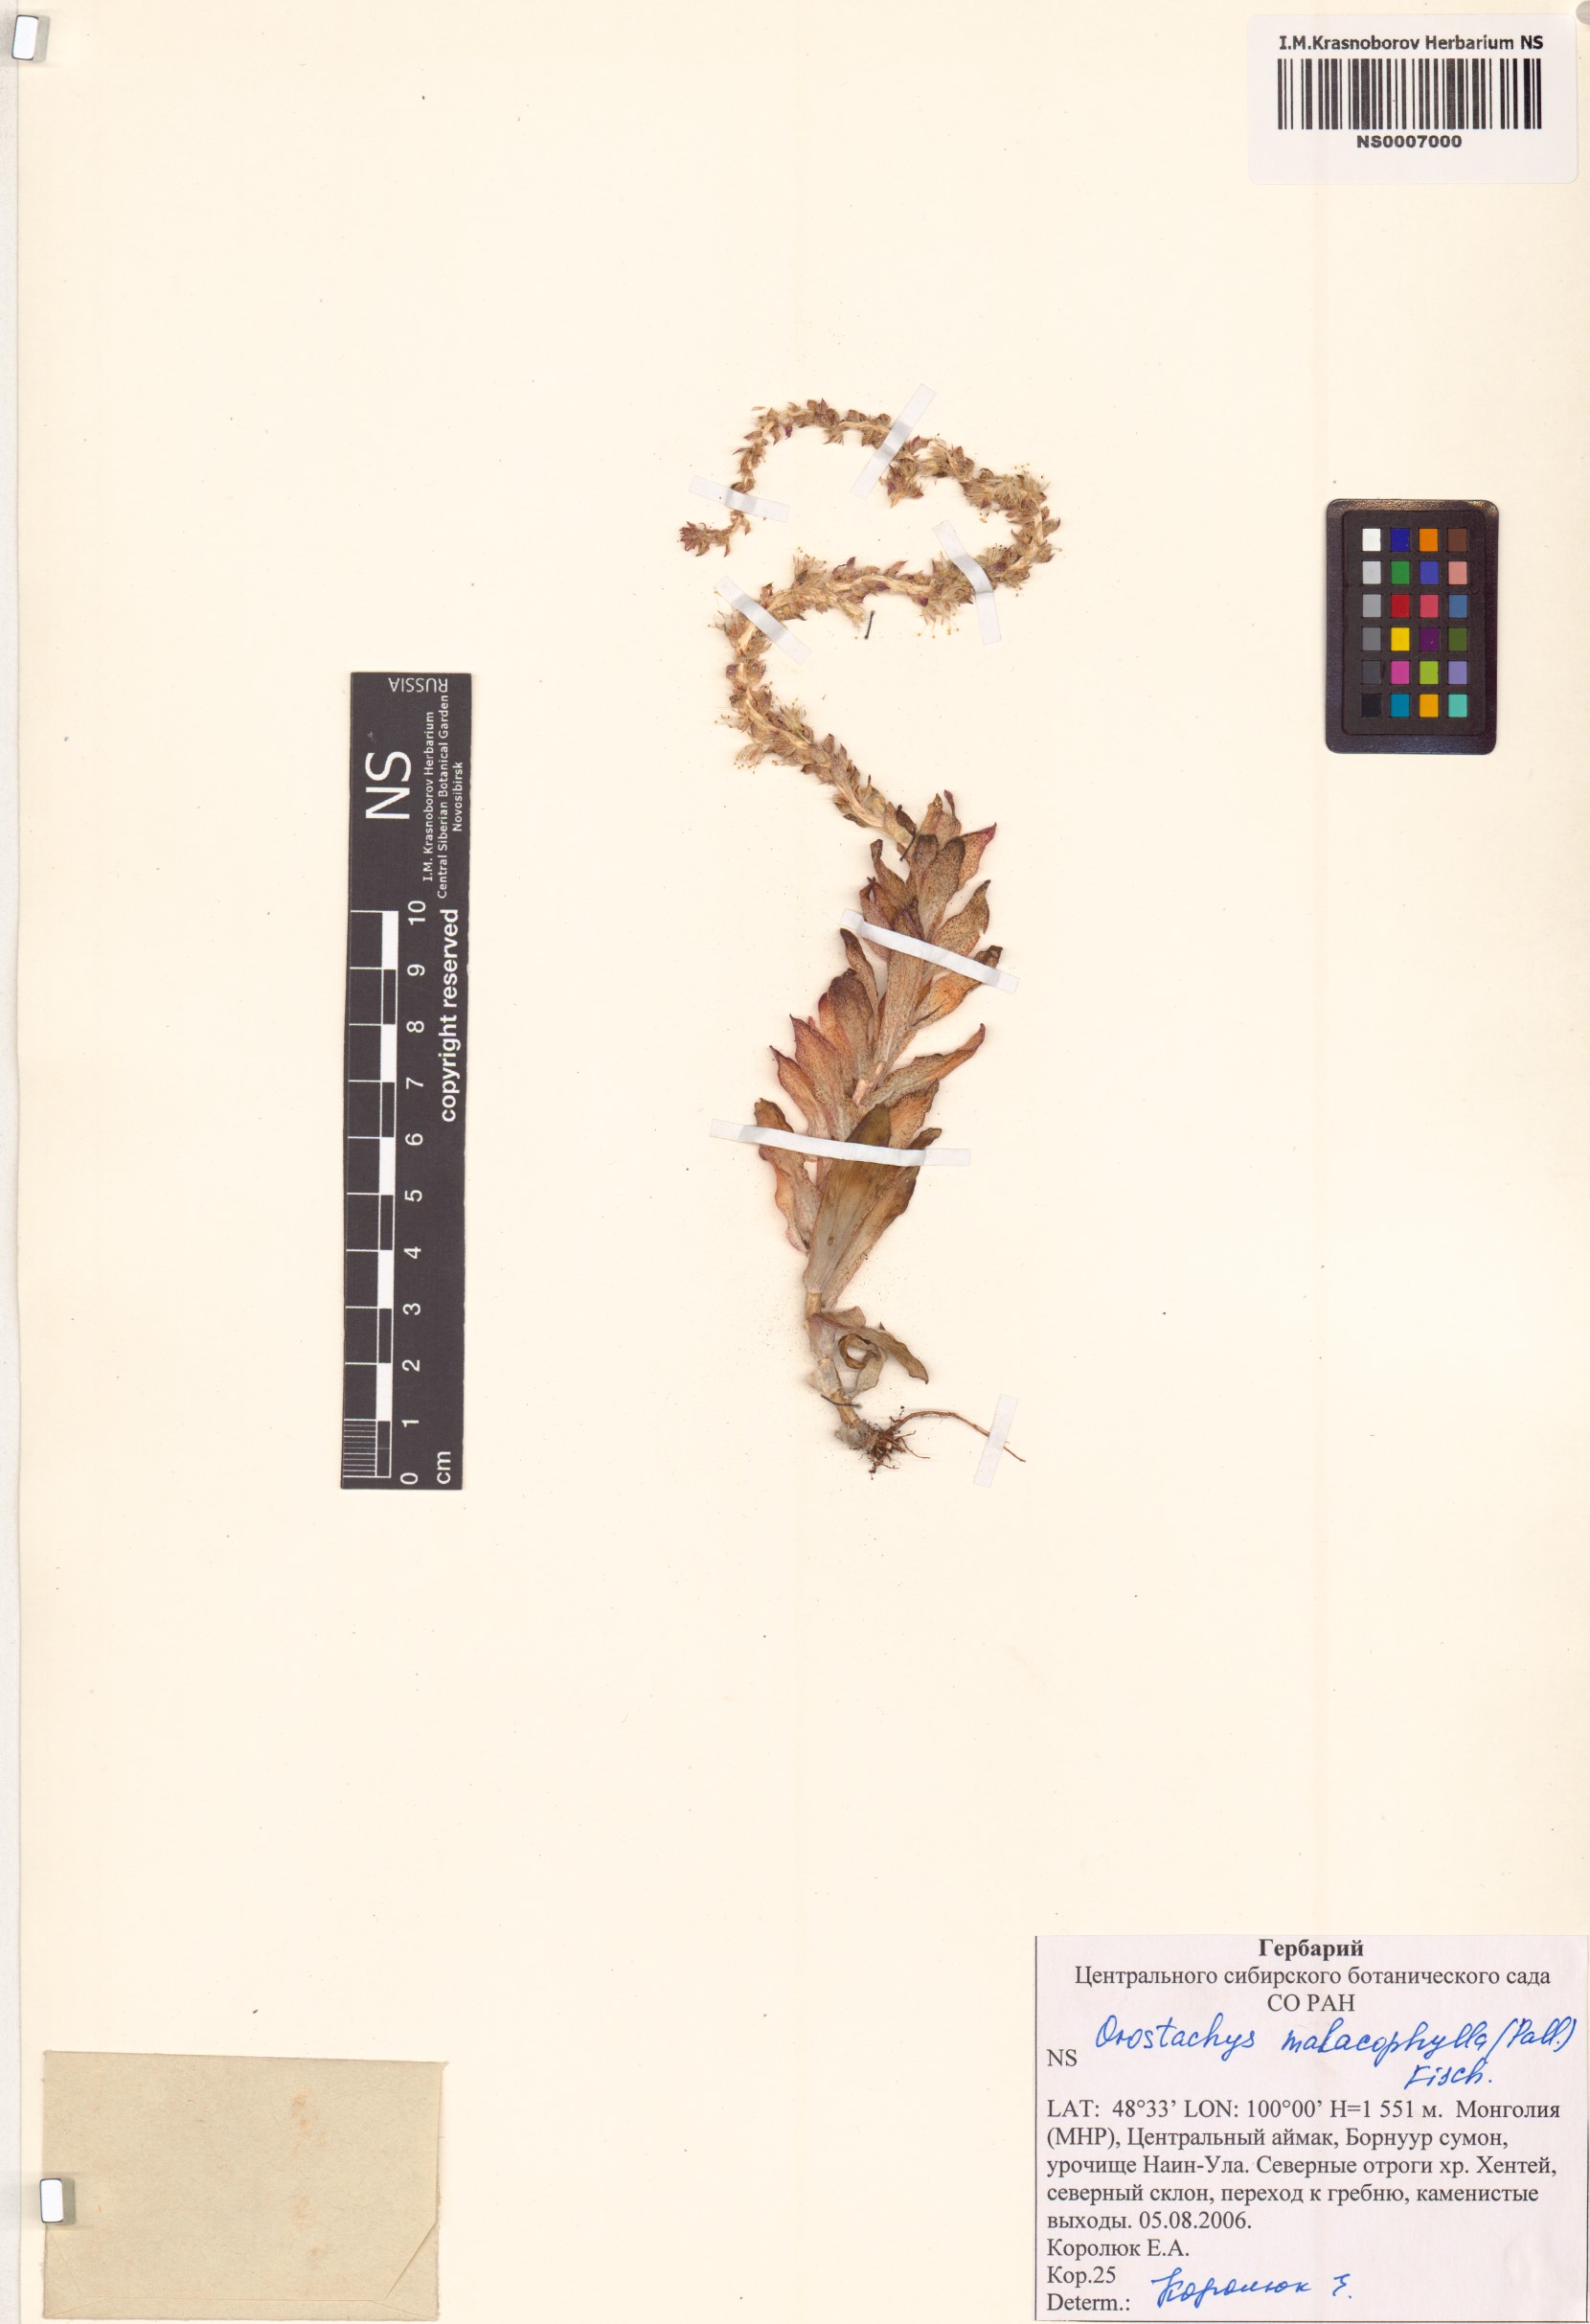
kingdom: Plantae
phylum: Tracheophyta
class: Magnoliopsida
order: Saxifragales
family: Crassulaceae
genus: Orostachys
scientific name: Orostachys malacophylla
